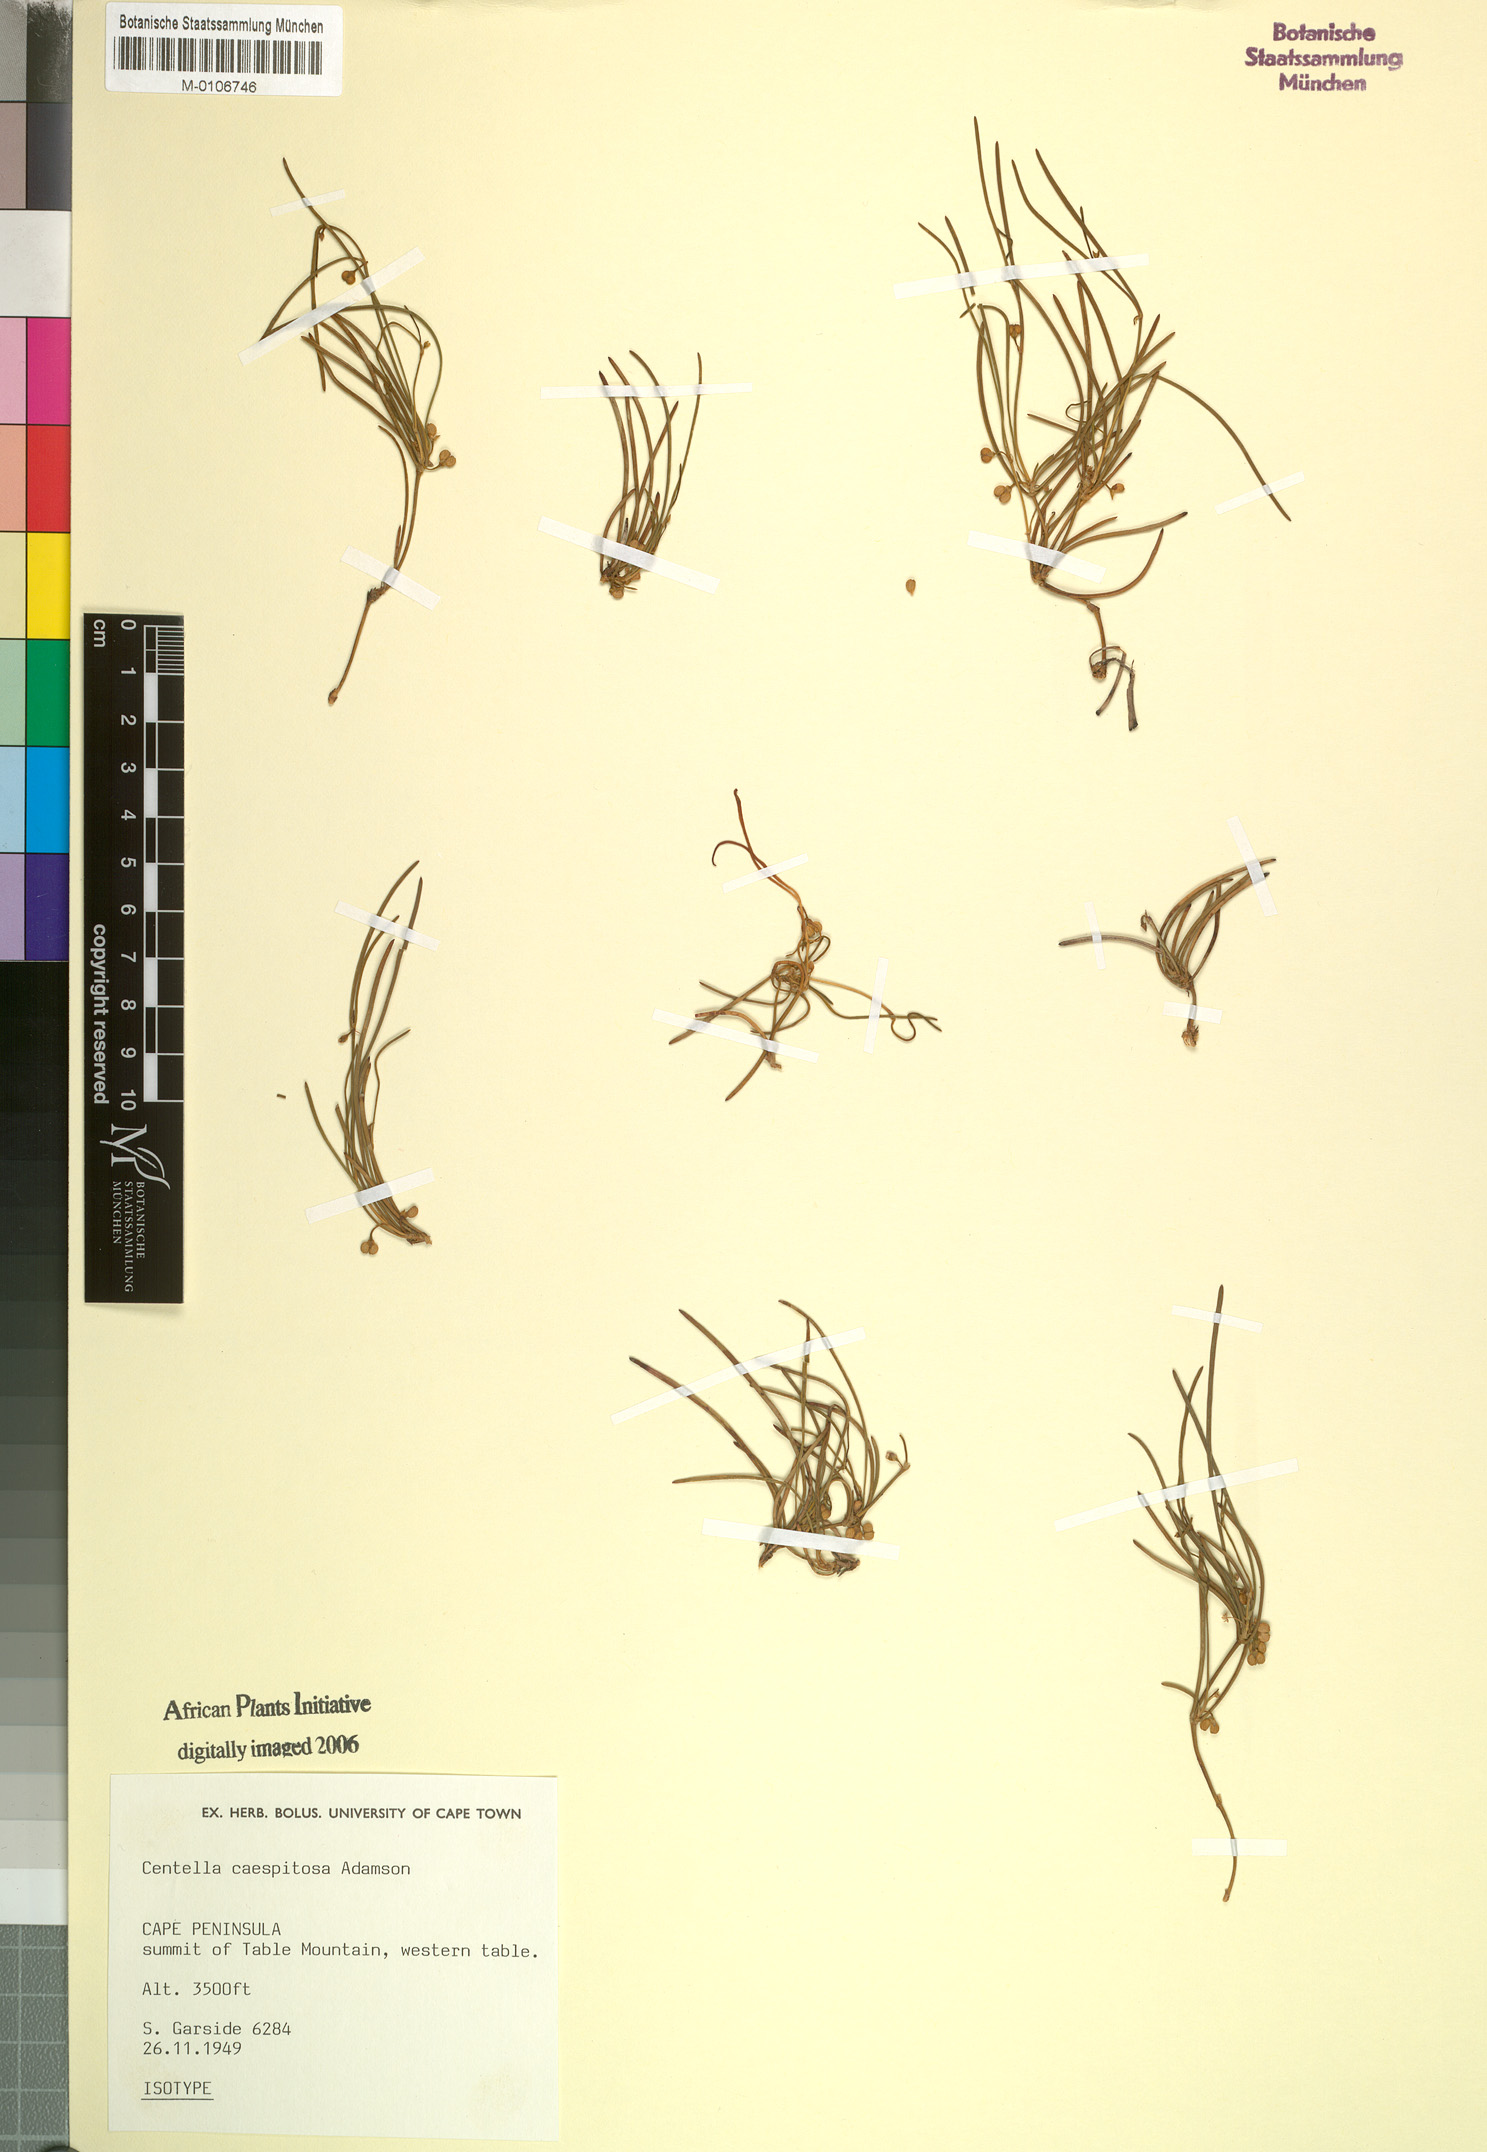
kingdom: Plantae
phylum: Tracheophyta
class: Magnoliopsida
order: Apiales
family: Apiaceae
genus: Centella
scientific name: Centella caespitosa
